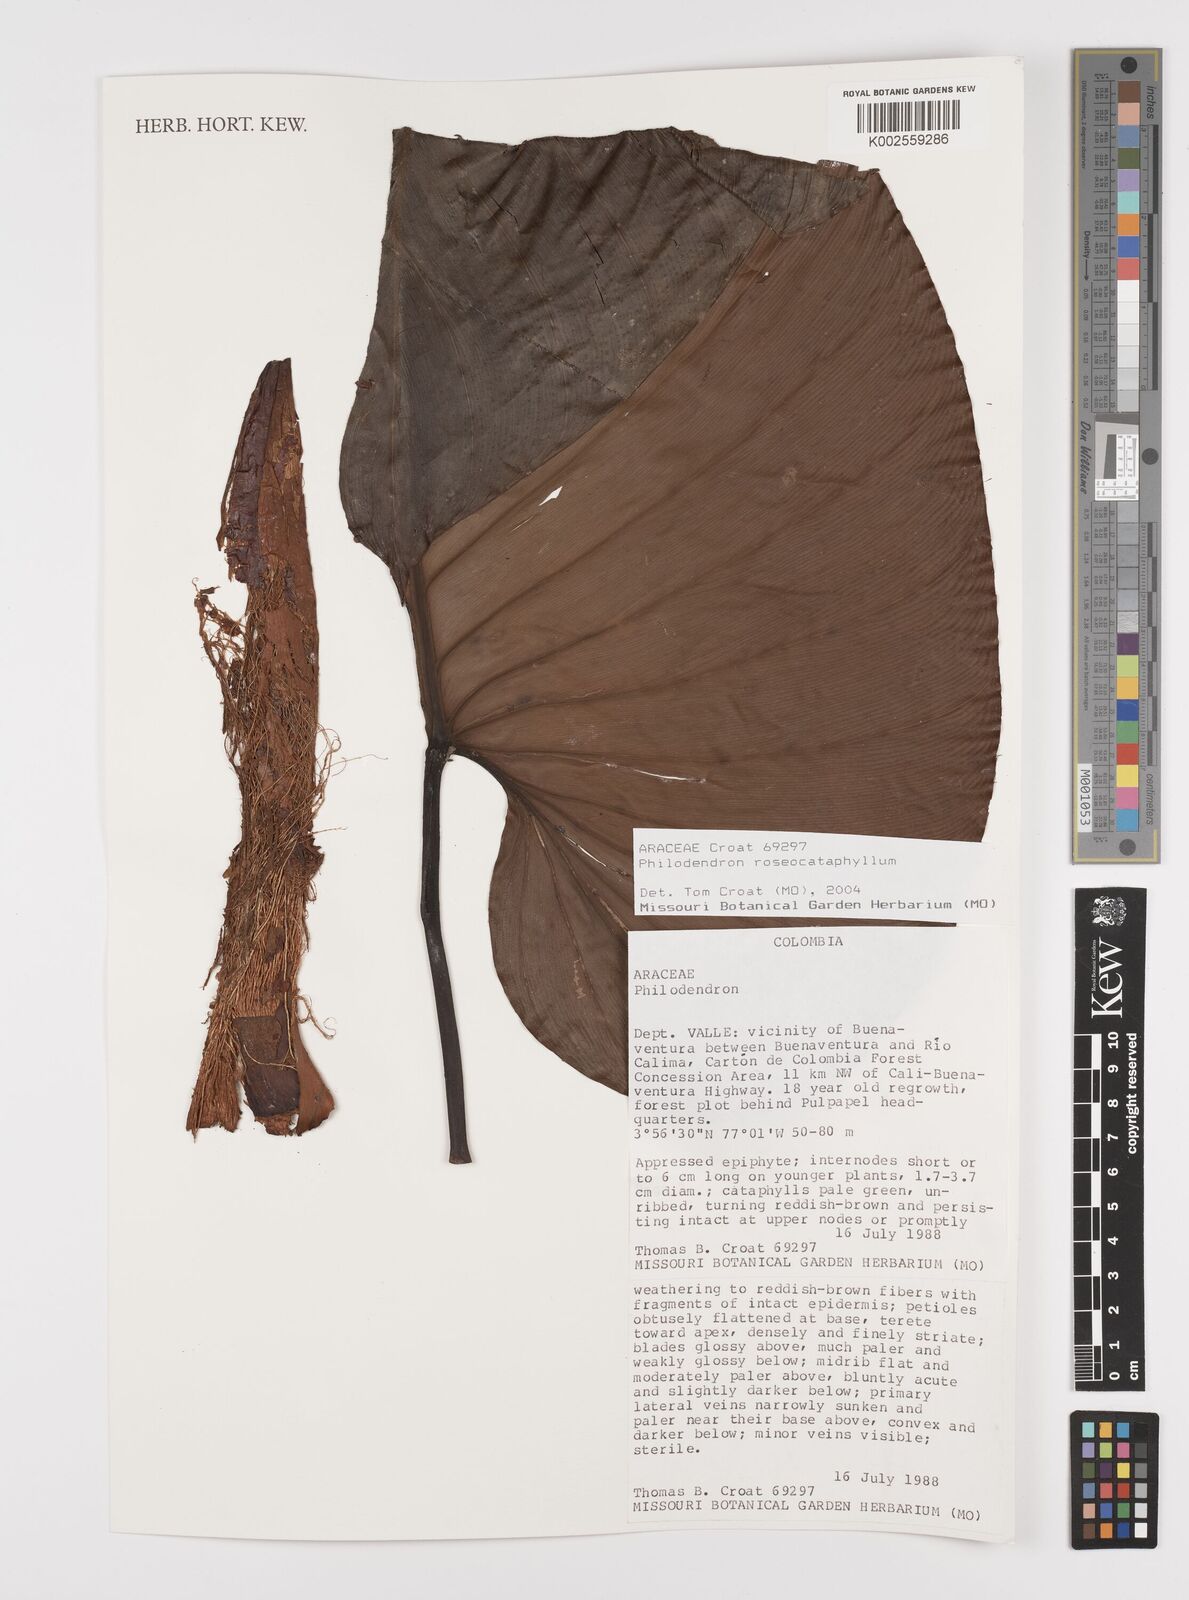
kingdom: Plantae
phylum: Tracheophyta
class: Liliopsida
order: Alismatales
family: Araceae
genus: Philodendron
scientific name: Philodendron roseocataphyllum
